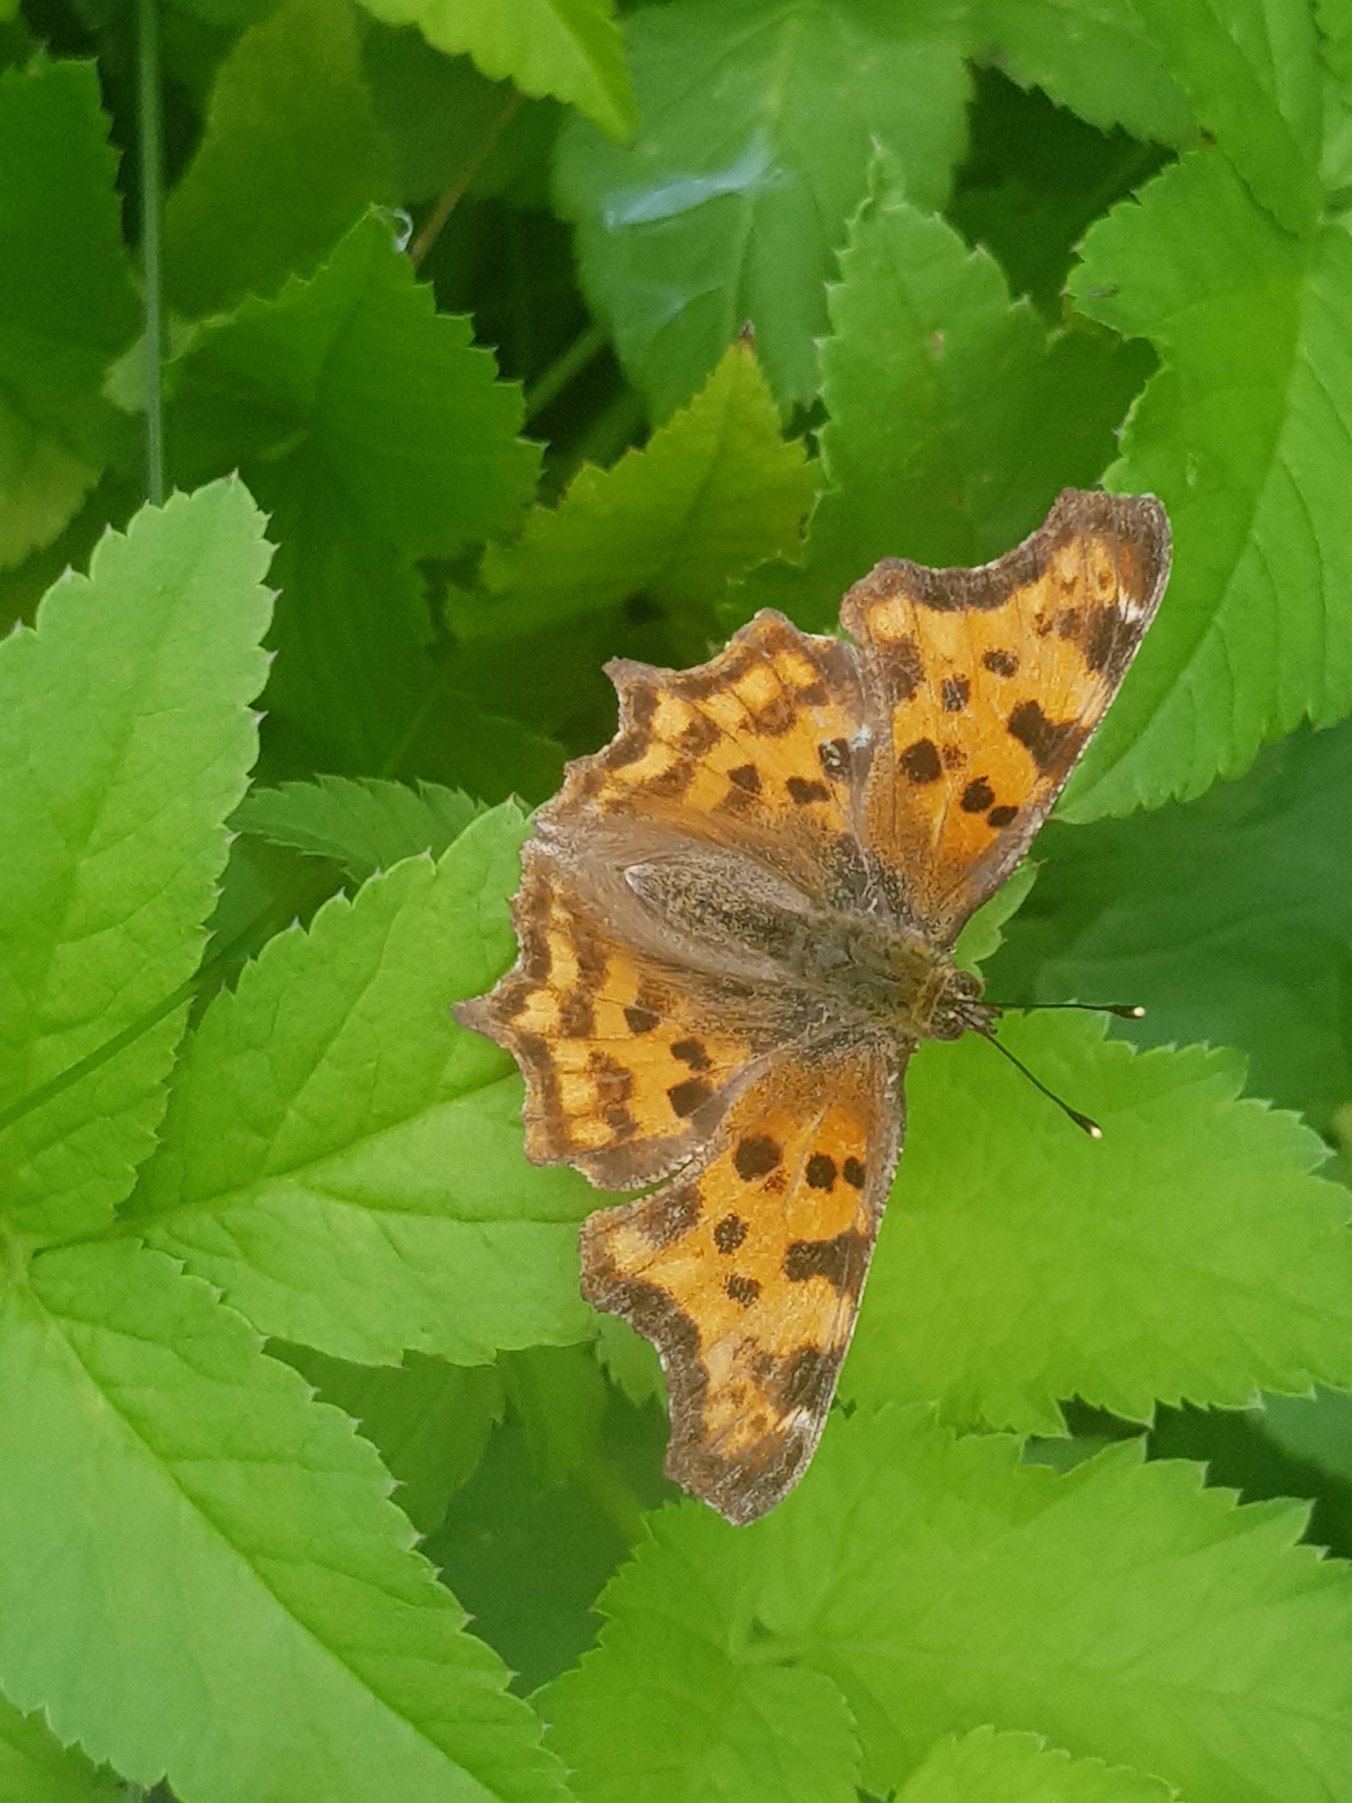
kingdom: Animalia
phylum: Arthropoda
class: Insecta
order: Lepidoptera
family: Nymphalidae
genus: Polygonia
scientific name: Polygonia c-album
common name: Det hvide C
